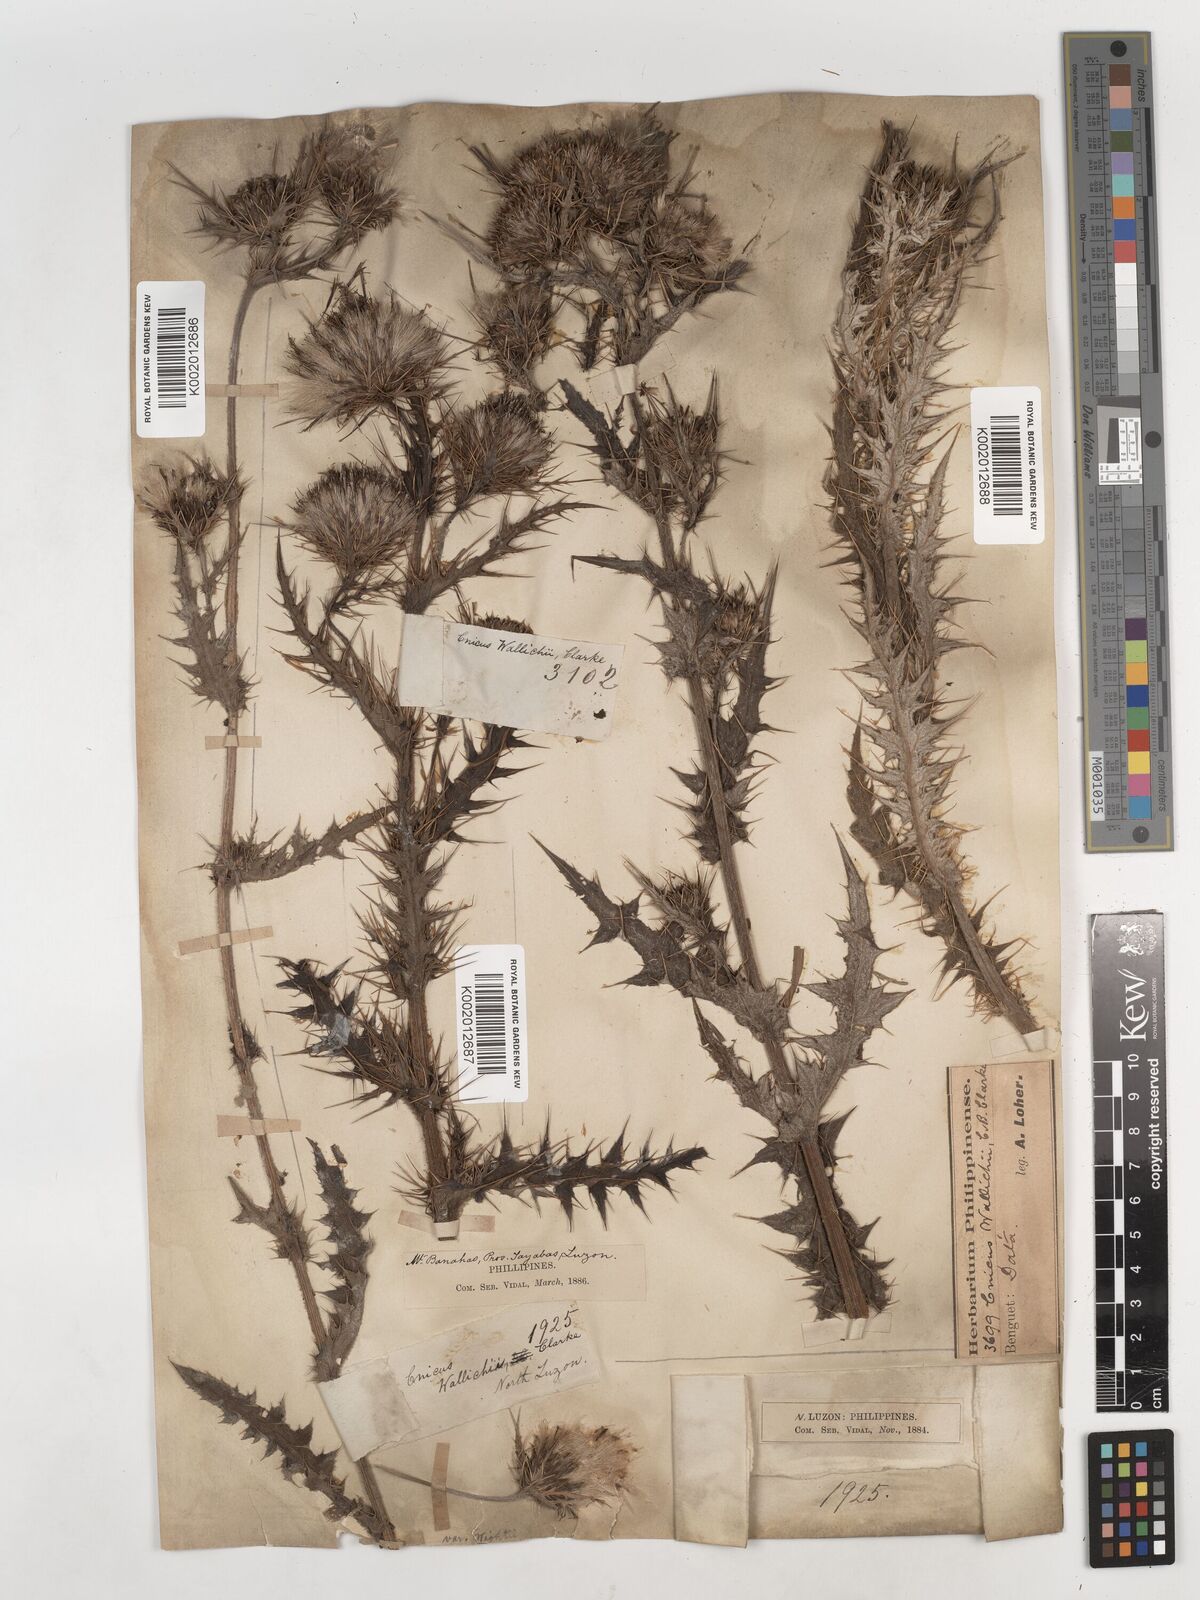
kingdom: Plantae
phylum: Tracheophyta
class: Magnoliopsida
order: Asterales
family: Asteraceae
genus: Cirsium
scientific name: Cirsium wallichii
